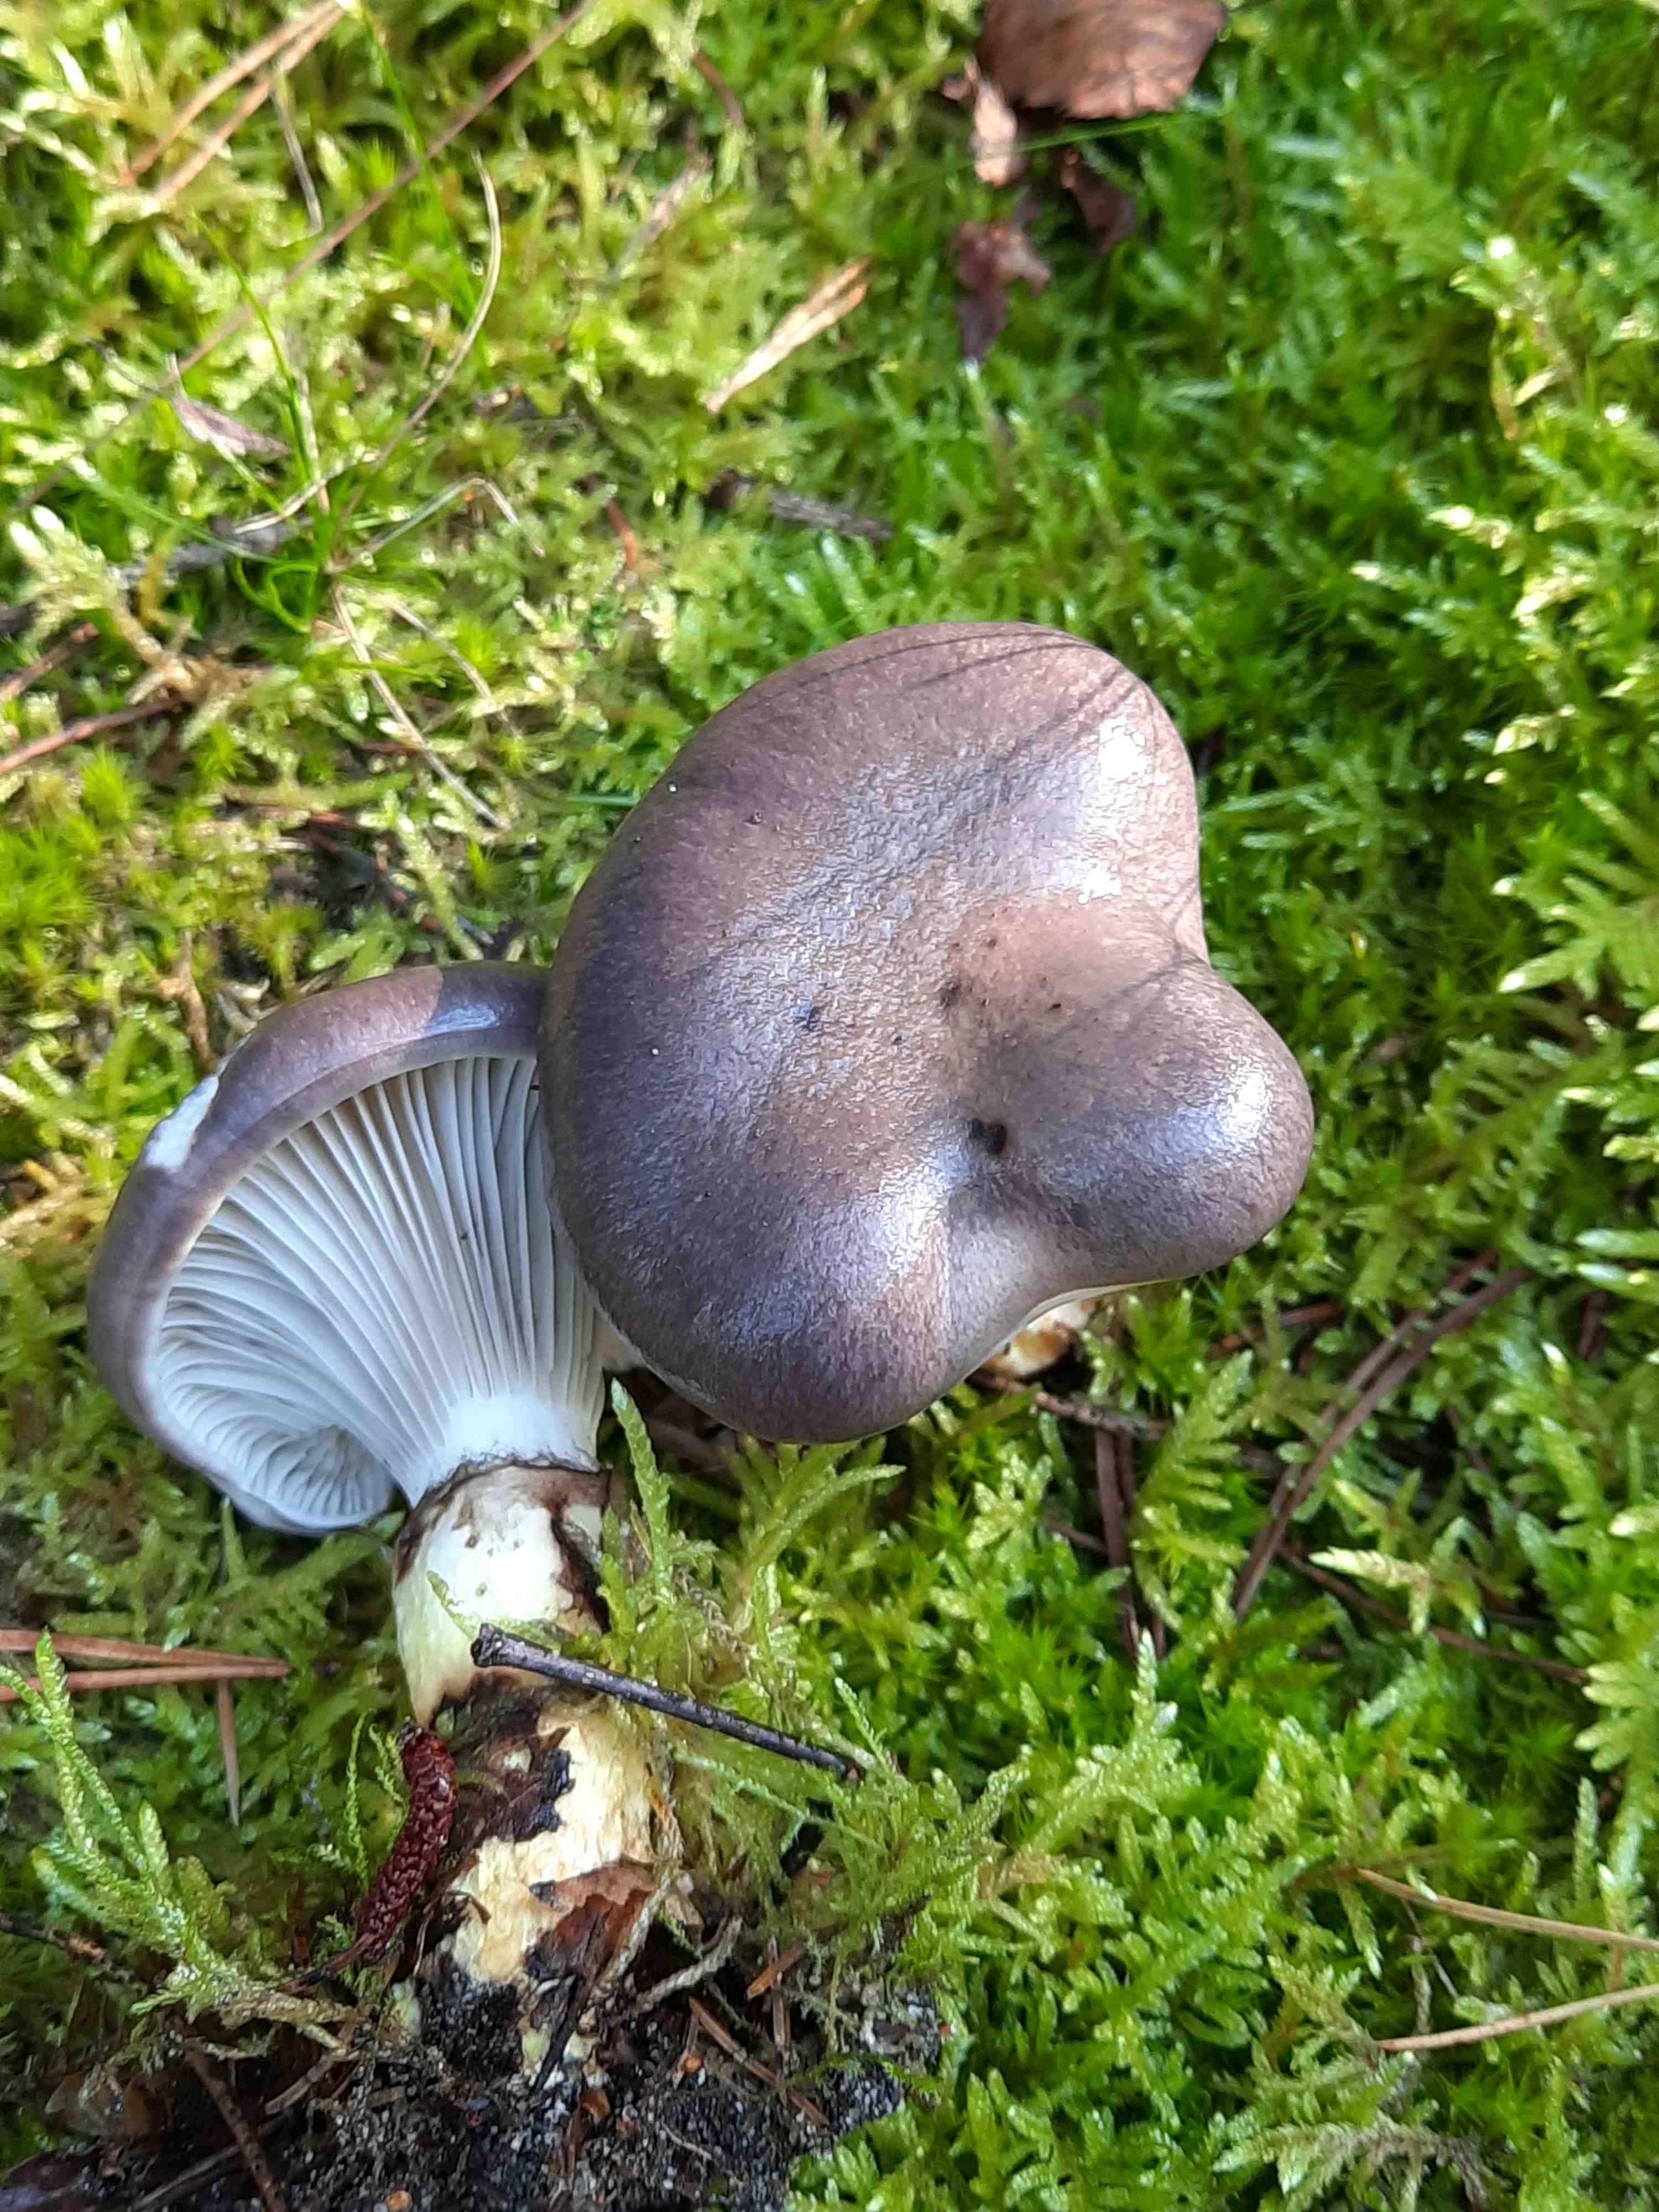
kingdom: Fungi
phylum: Basidiomycota
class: Agaricomycetes
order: Boletales
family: Gomphidiaceae
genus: Gomphidius
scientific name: Gomphidius glutinosus
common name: grå slimslør
